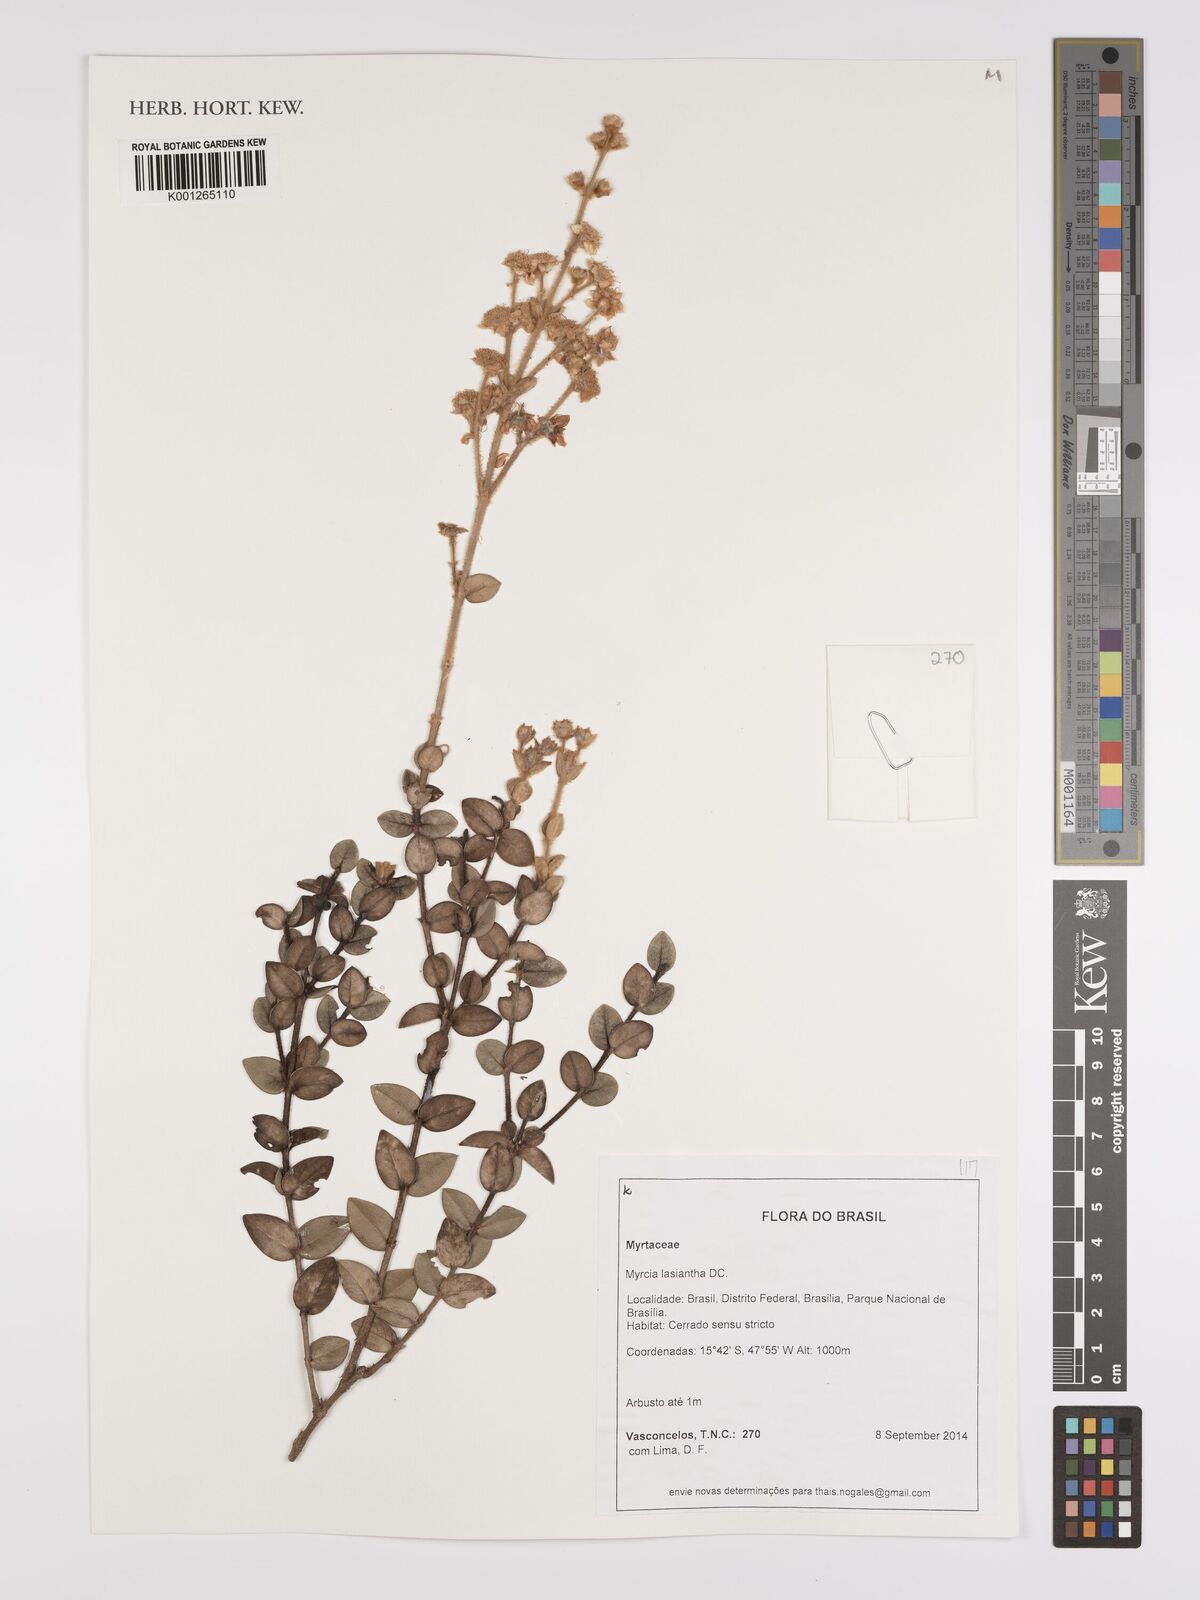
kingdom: Plantae
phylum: Tracheophyta
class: Magnoliopsida
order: Myrtales
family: Myrtaceae
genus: Myrcia
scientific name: Myrcia lasiantha
